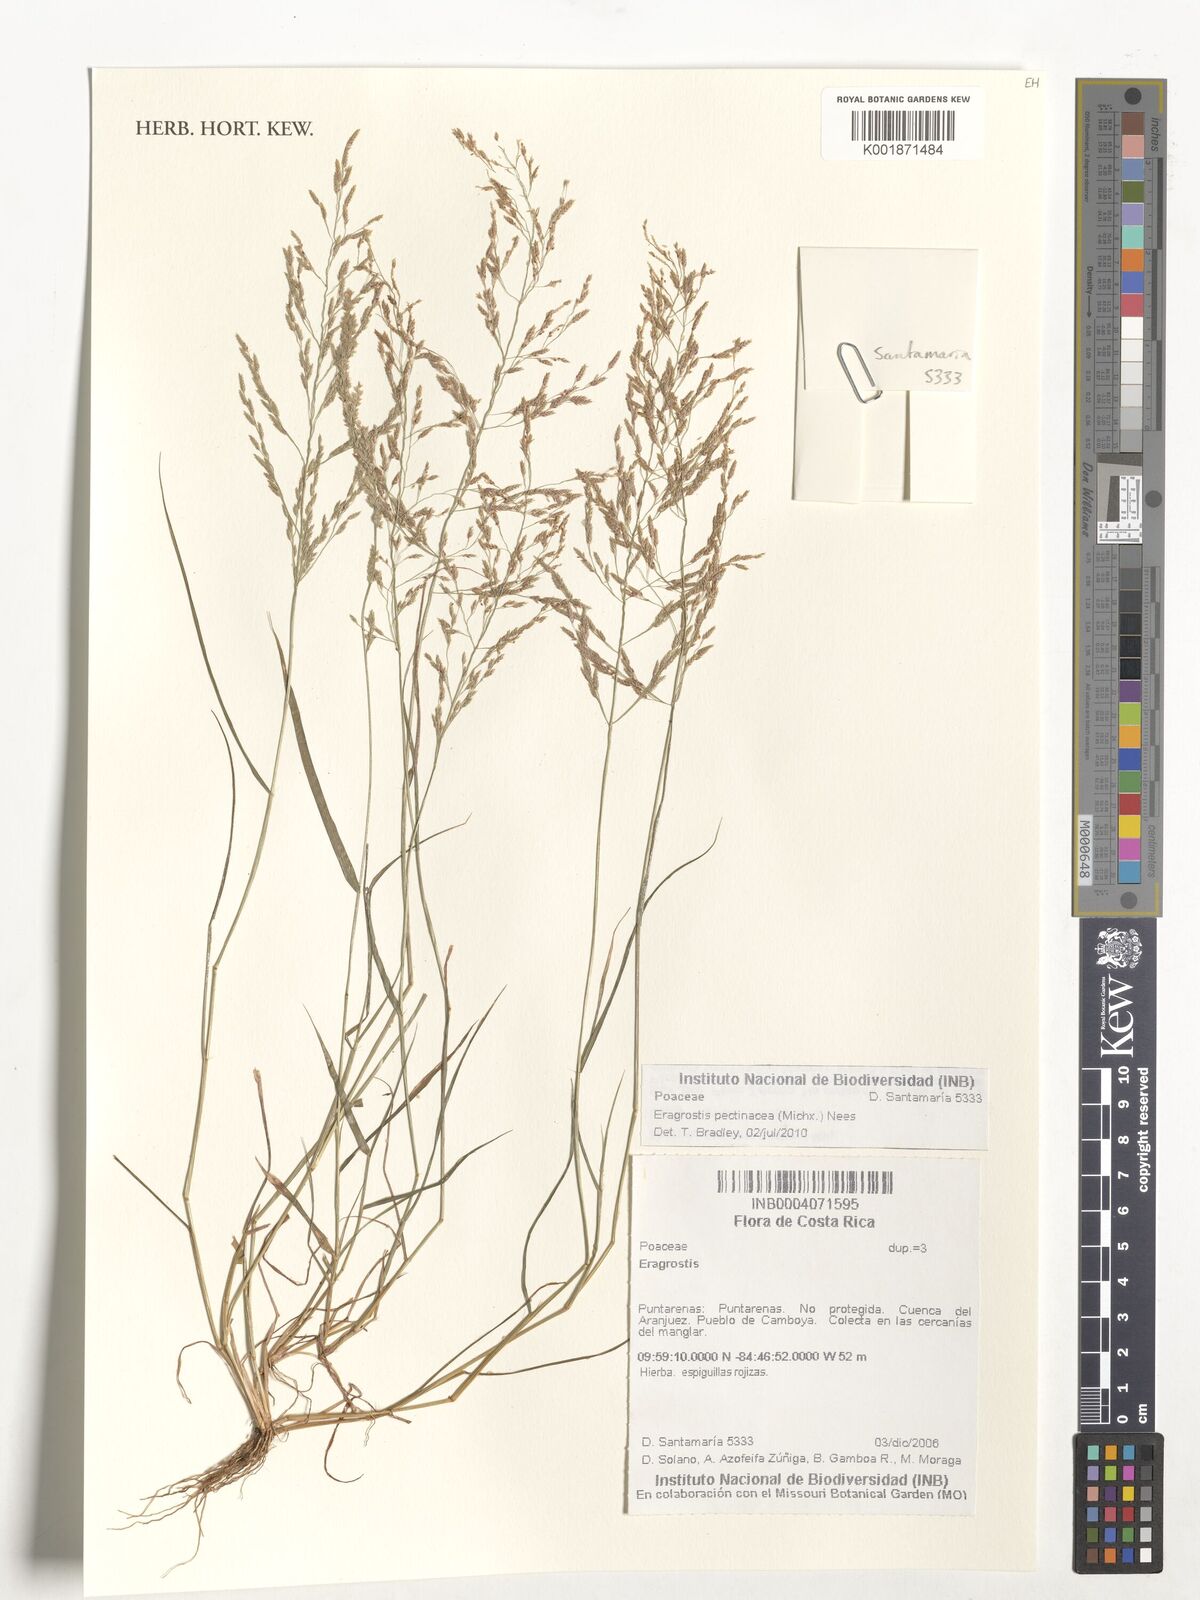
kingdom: Plantae
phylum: Tracheophyta
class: Liliopsida
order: Poales
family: Poaceae
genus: Eragrostis
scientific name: Eragrostis pectinacea
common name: Tufted lovegrass
